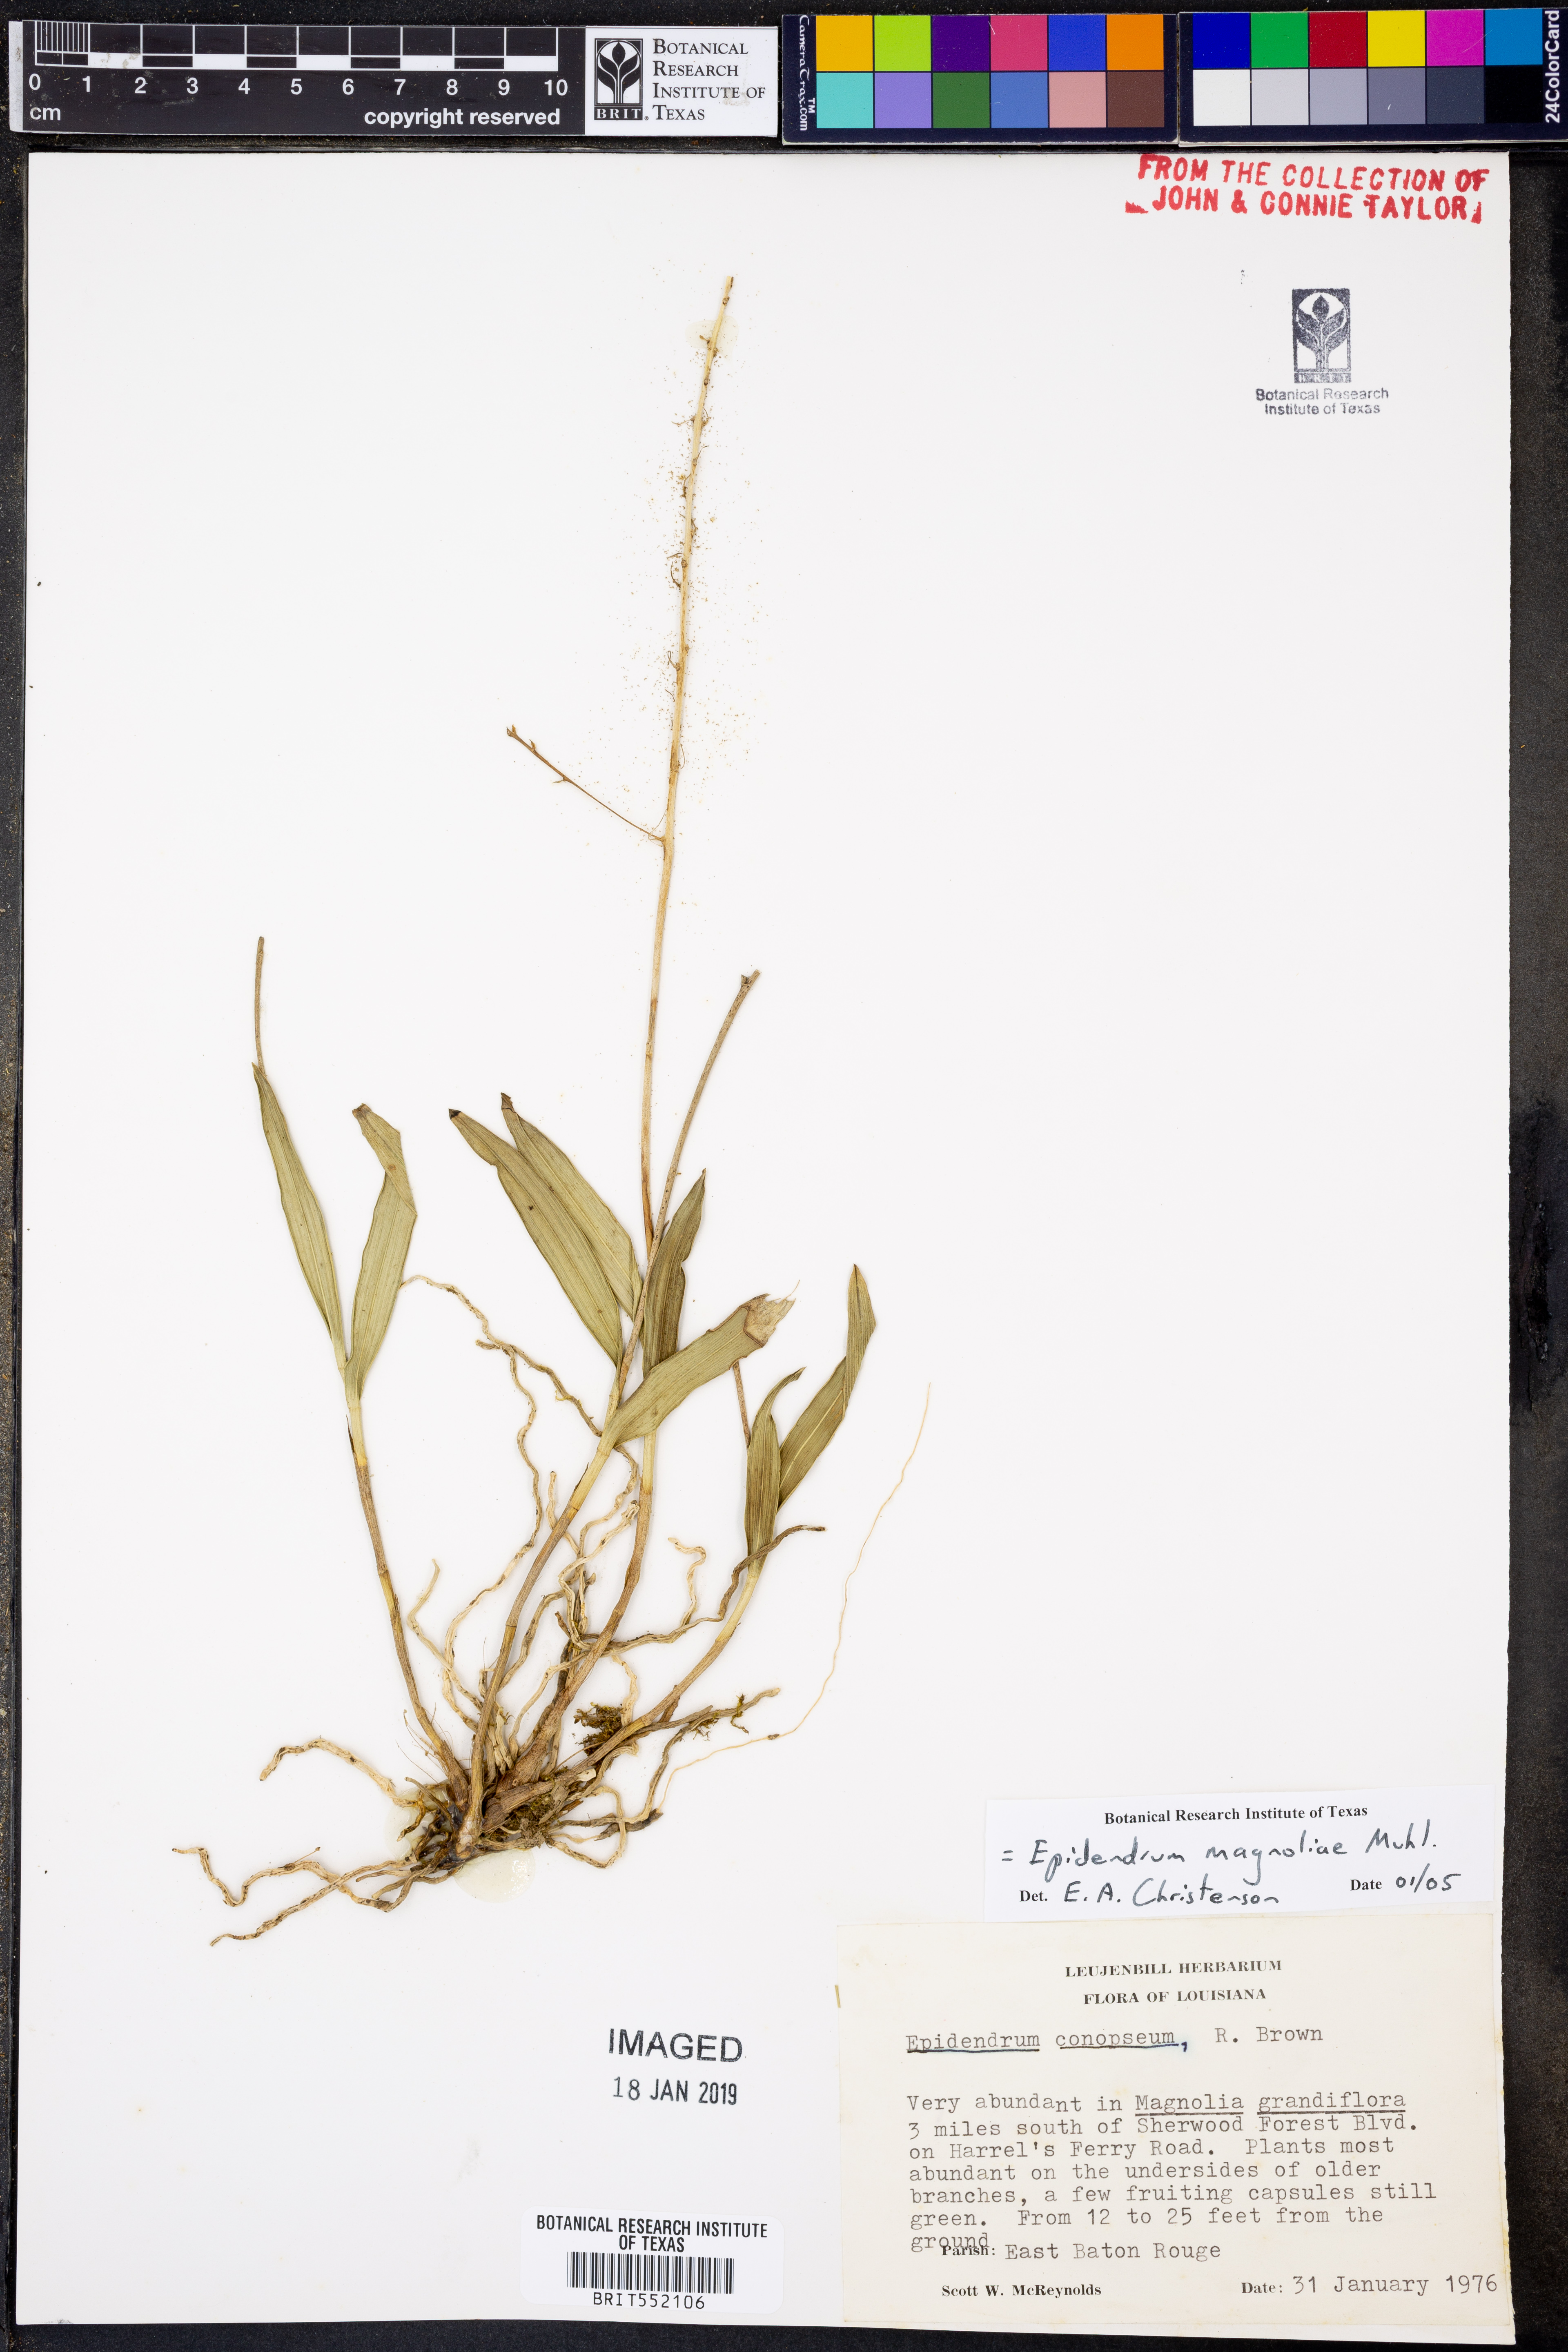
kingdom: Plantae
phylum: Tracheophyta
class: Liliopsida
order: Asparagales
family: Orchidaceae
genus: Epidendrum
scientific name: Epidendrum magnoliae
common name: Green fly orchid
